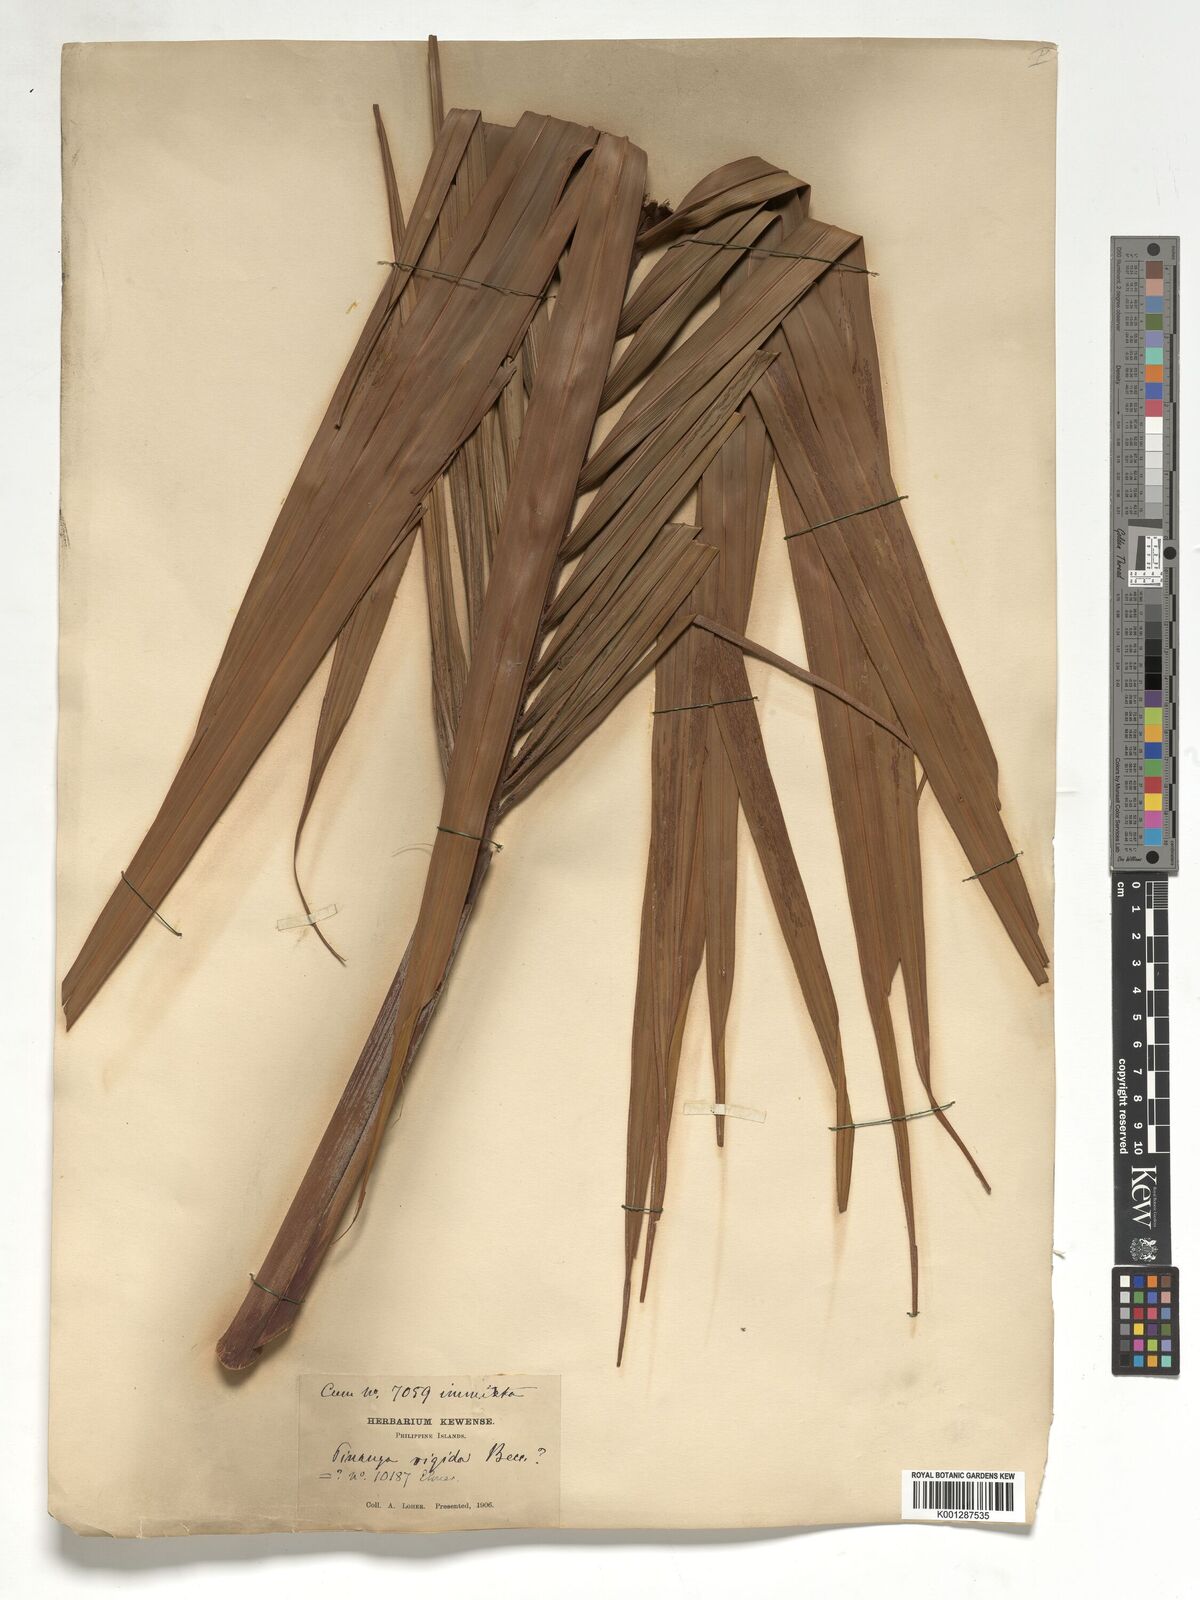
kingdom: Plantae
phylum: Tracheophyta
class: Liliopsida
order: Arecales
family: Arecaceae
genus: Pinanga
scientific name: Pinanga rigida
